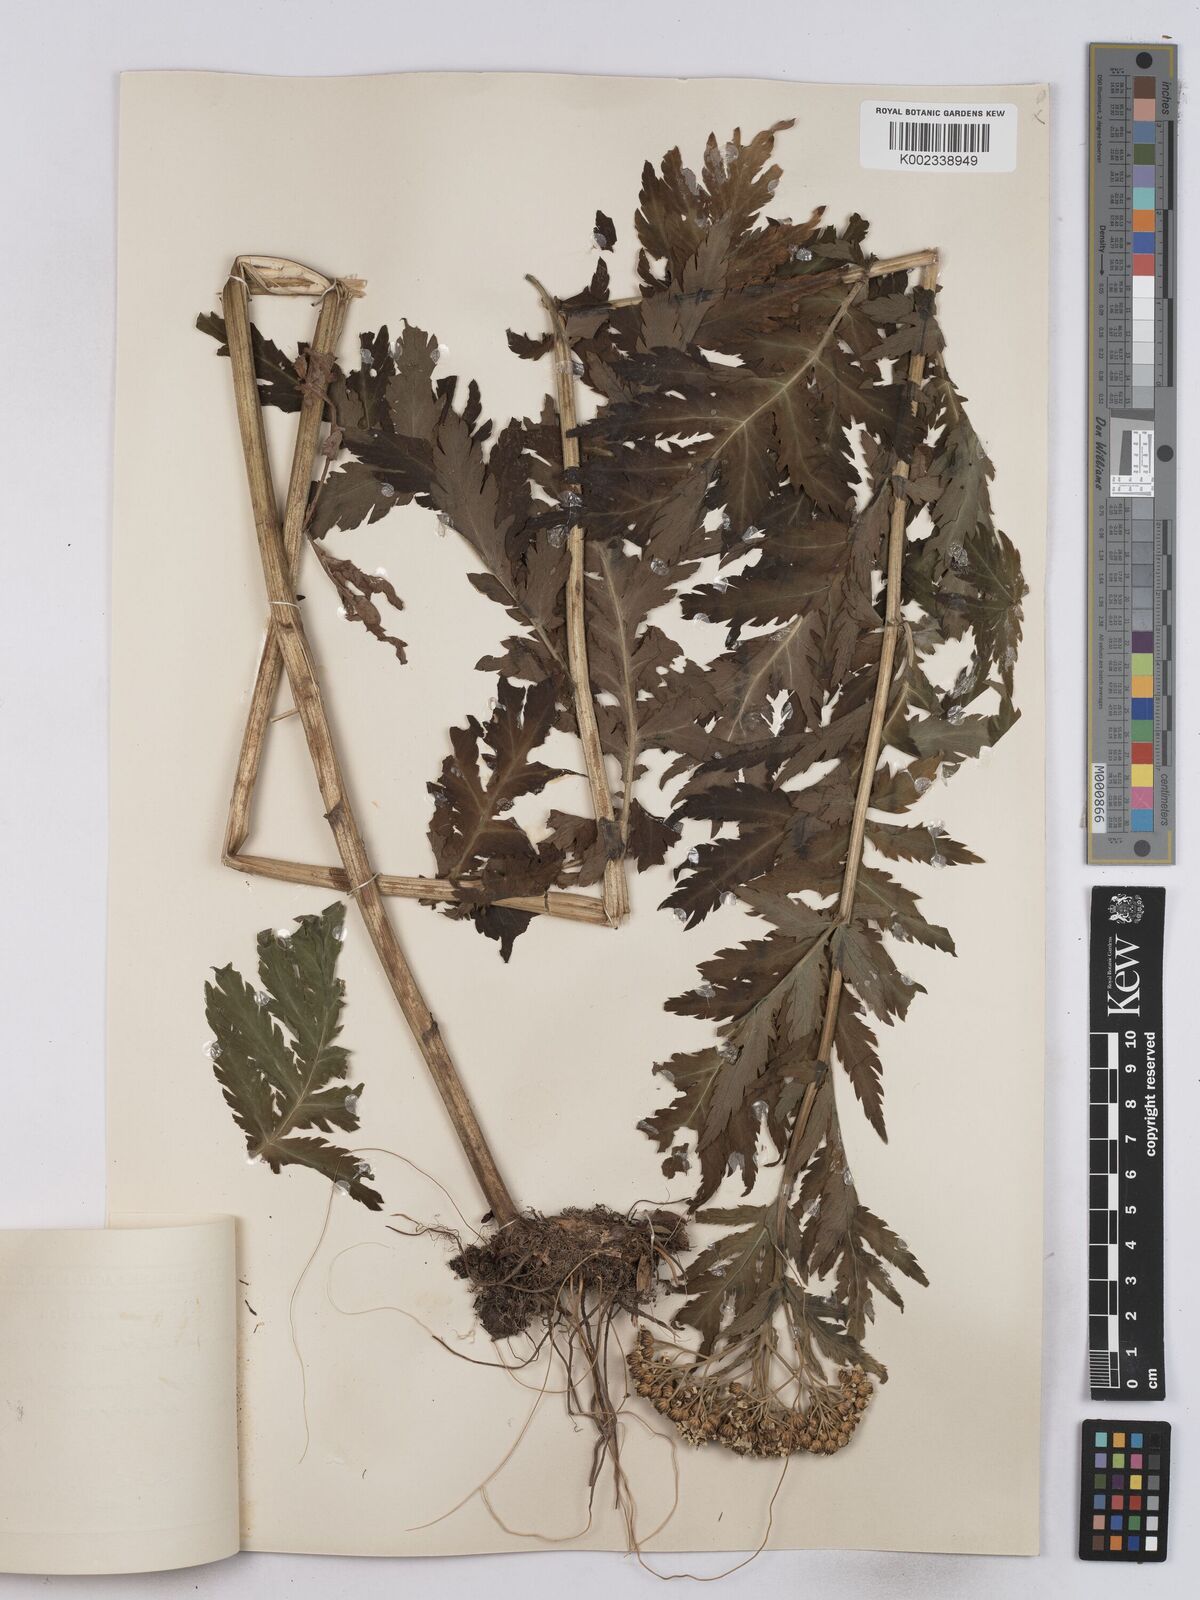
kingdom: Plantae
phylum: Tracheophyta
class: Magnoliopsida
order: Asterales
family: Asteraceae
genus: Tanacetum
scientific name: Tanacetum macrophyllum
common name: Rayed tansy
